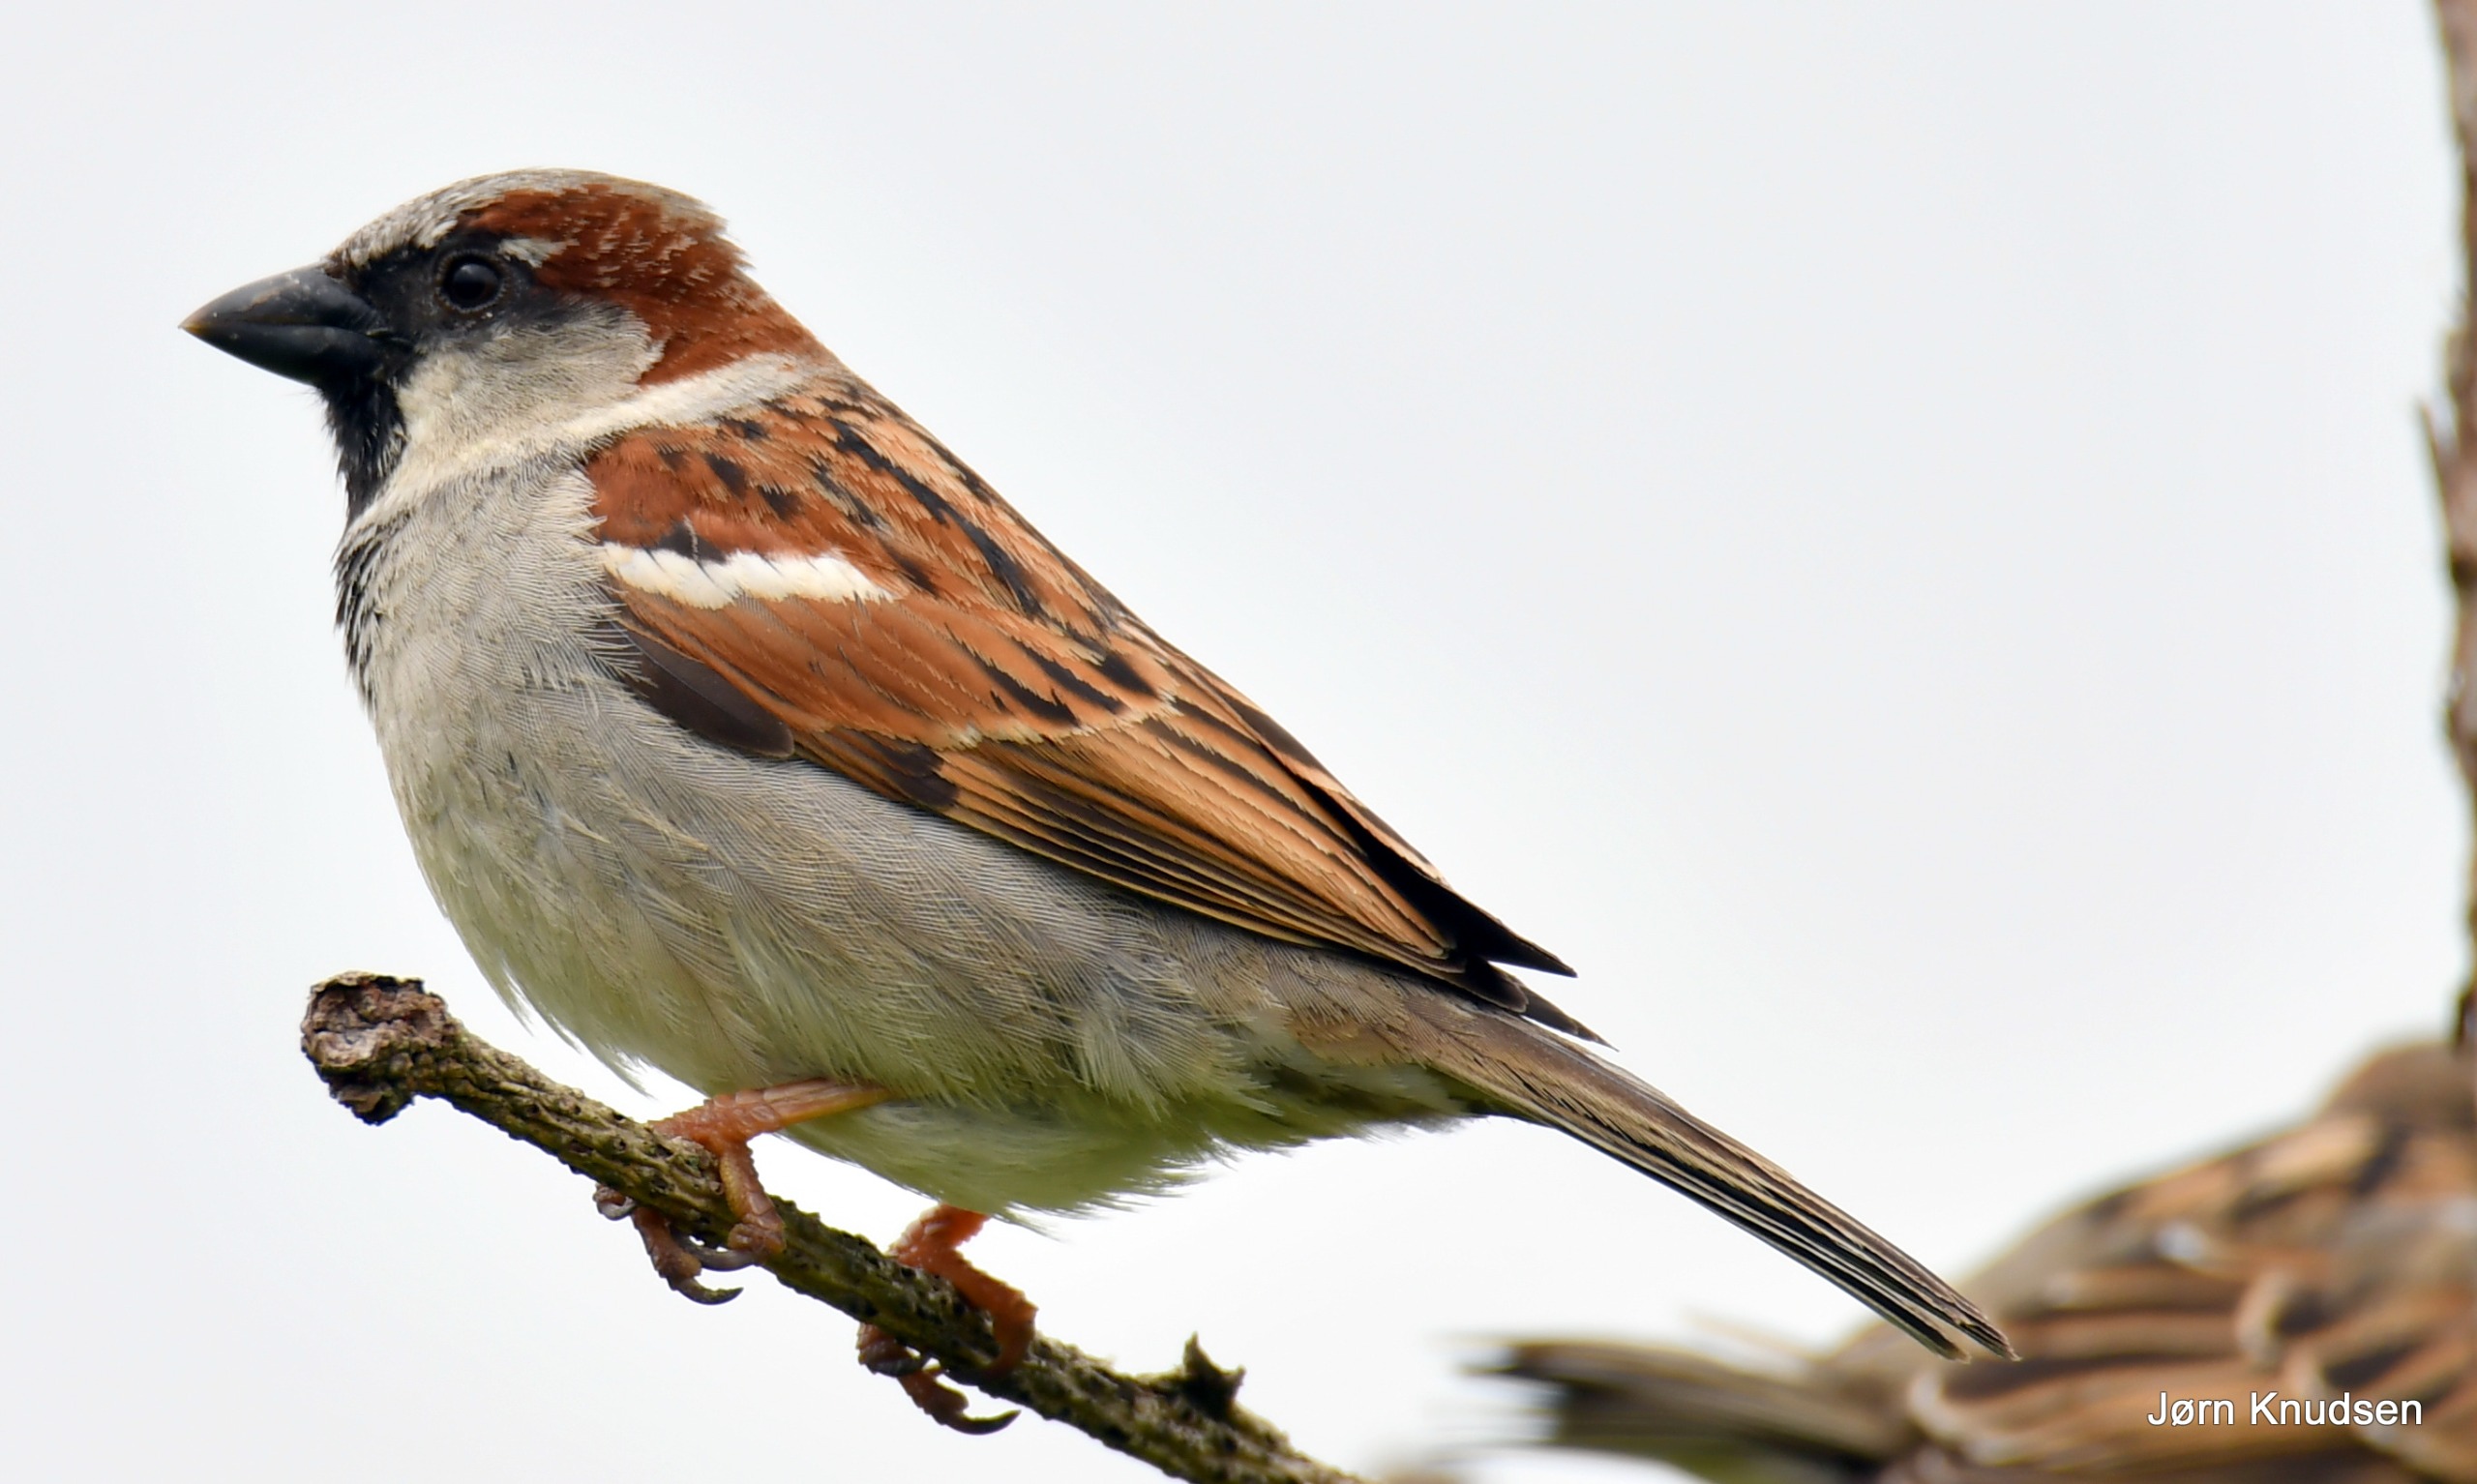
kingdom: Animalia
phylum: Chordata
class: Aves
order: Passeriformes
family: Passeridae
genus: Passer
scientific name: Passer domesticus
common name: Gråspurv
